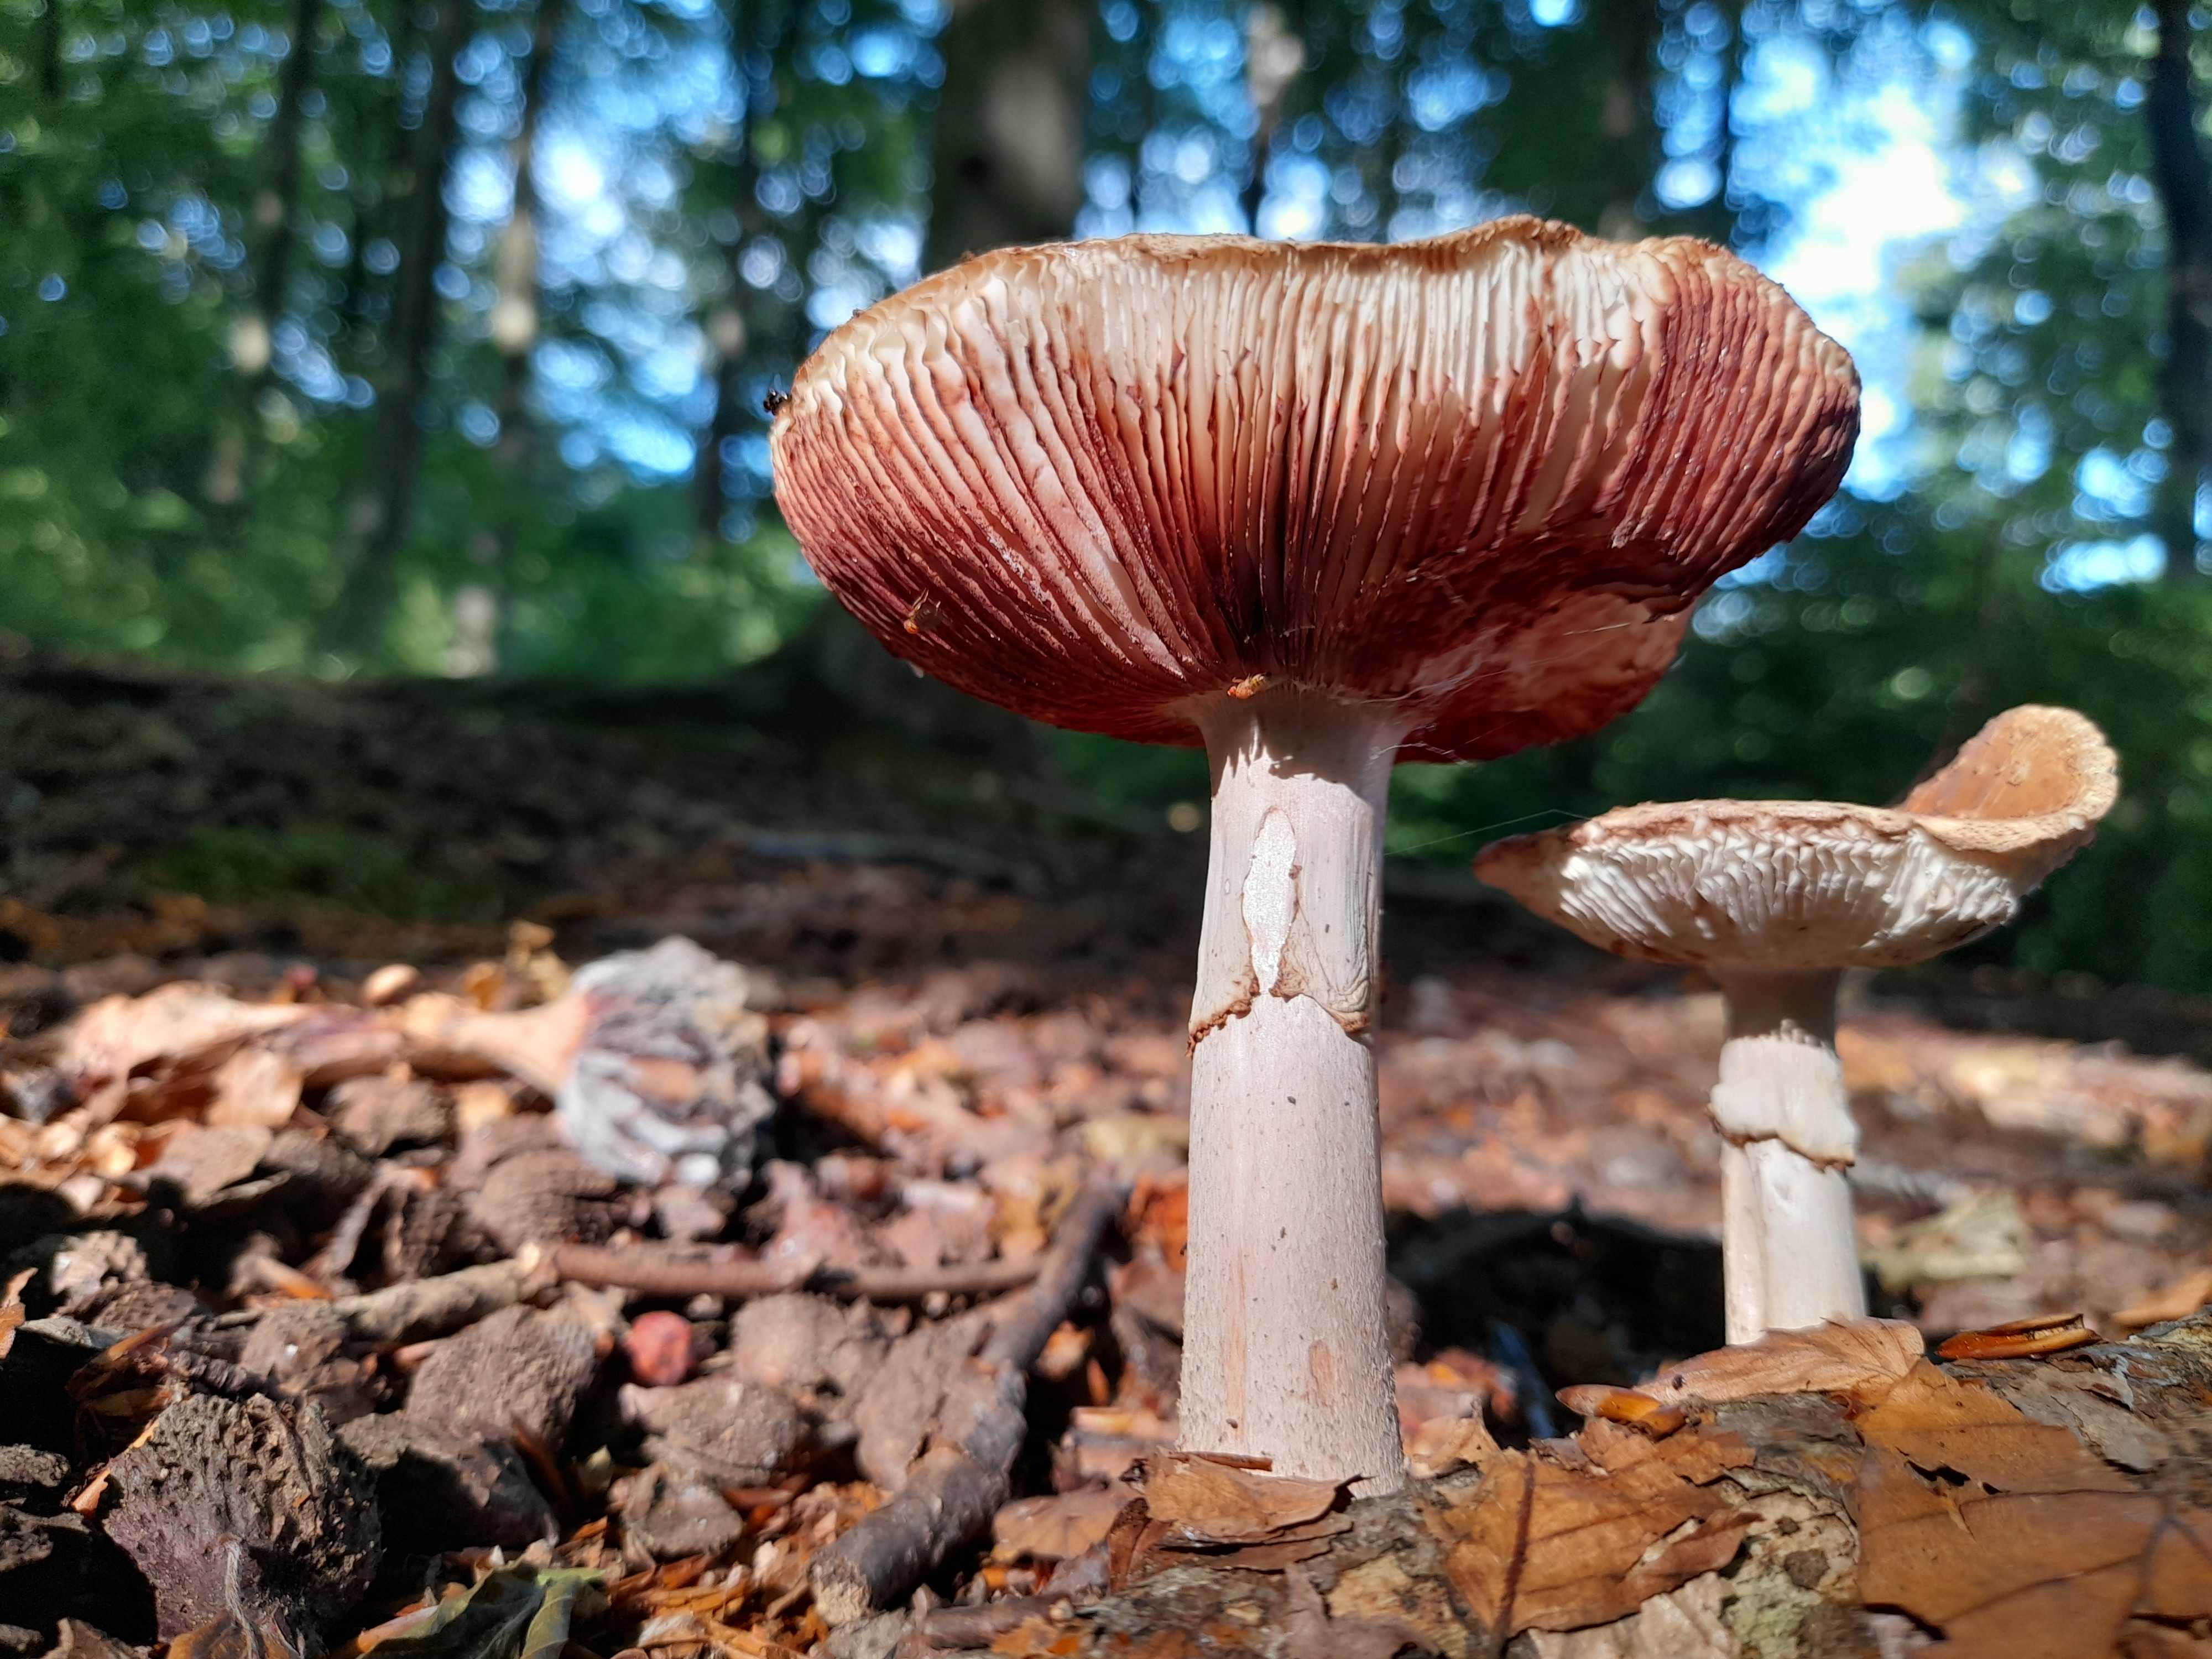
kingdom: Fungi
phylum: Basidiomycota
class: Agaricomycetes
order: Agaricales
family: Amanitaceae
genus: Amanita
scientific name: Amanita rubescens
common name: rødmende fluesvamp
